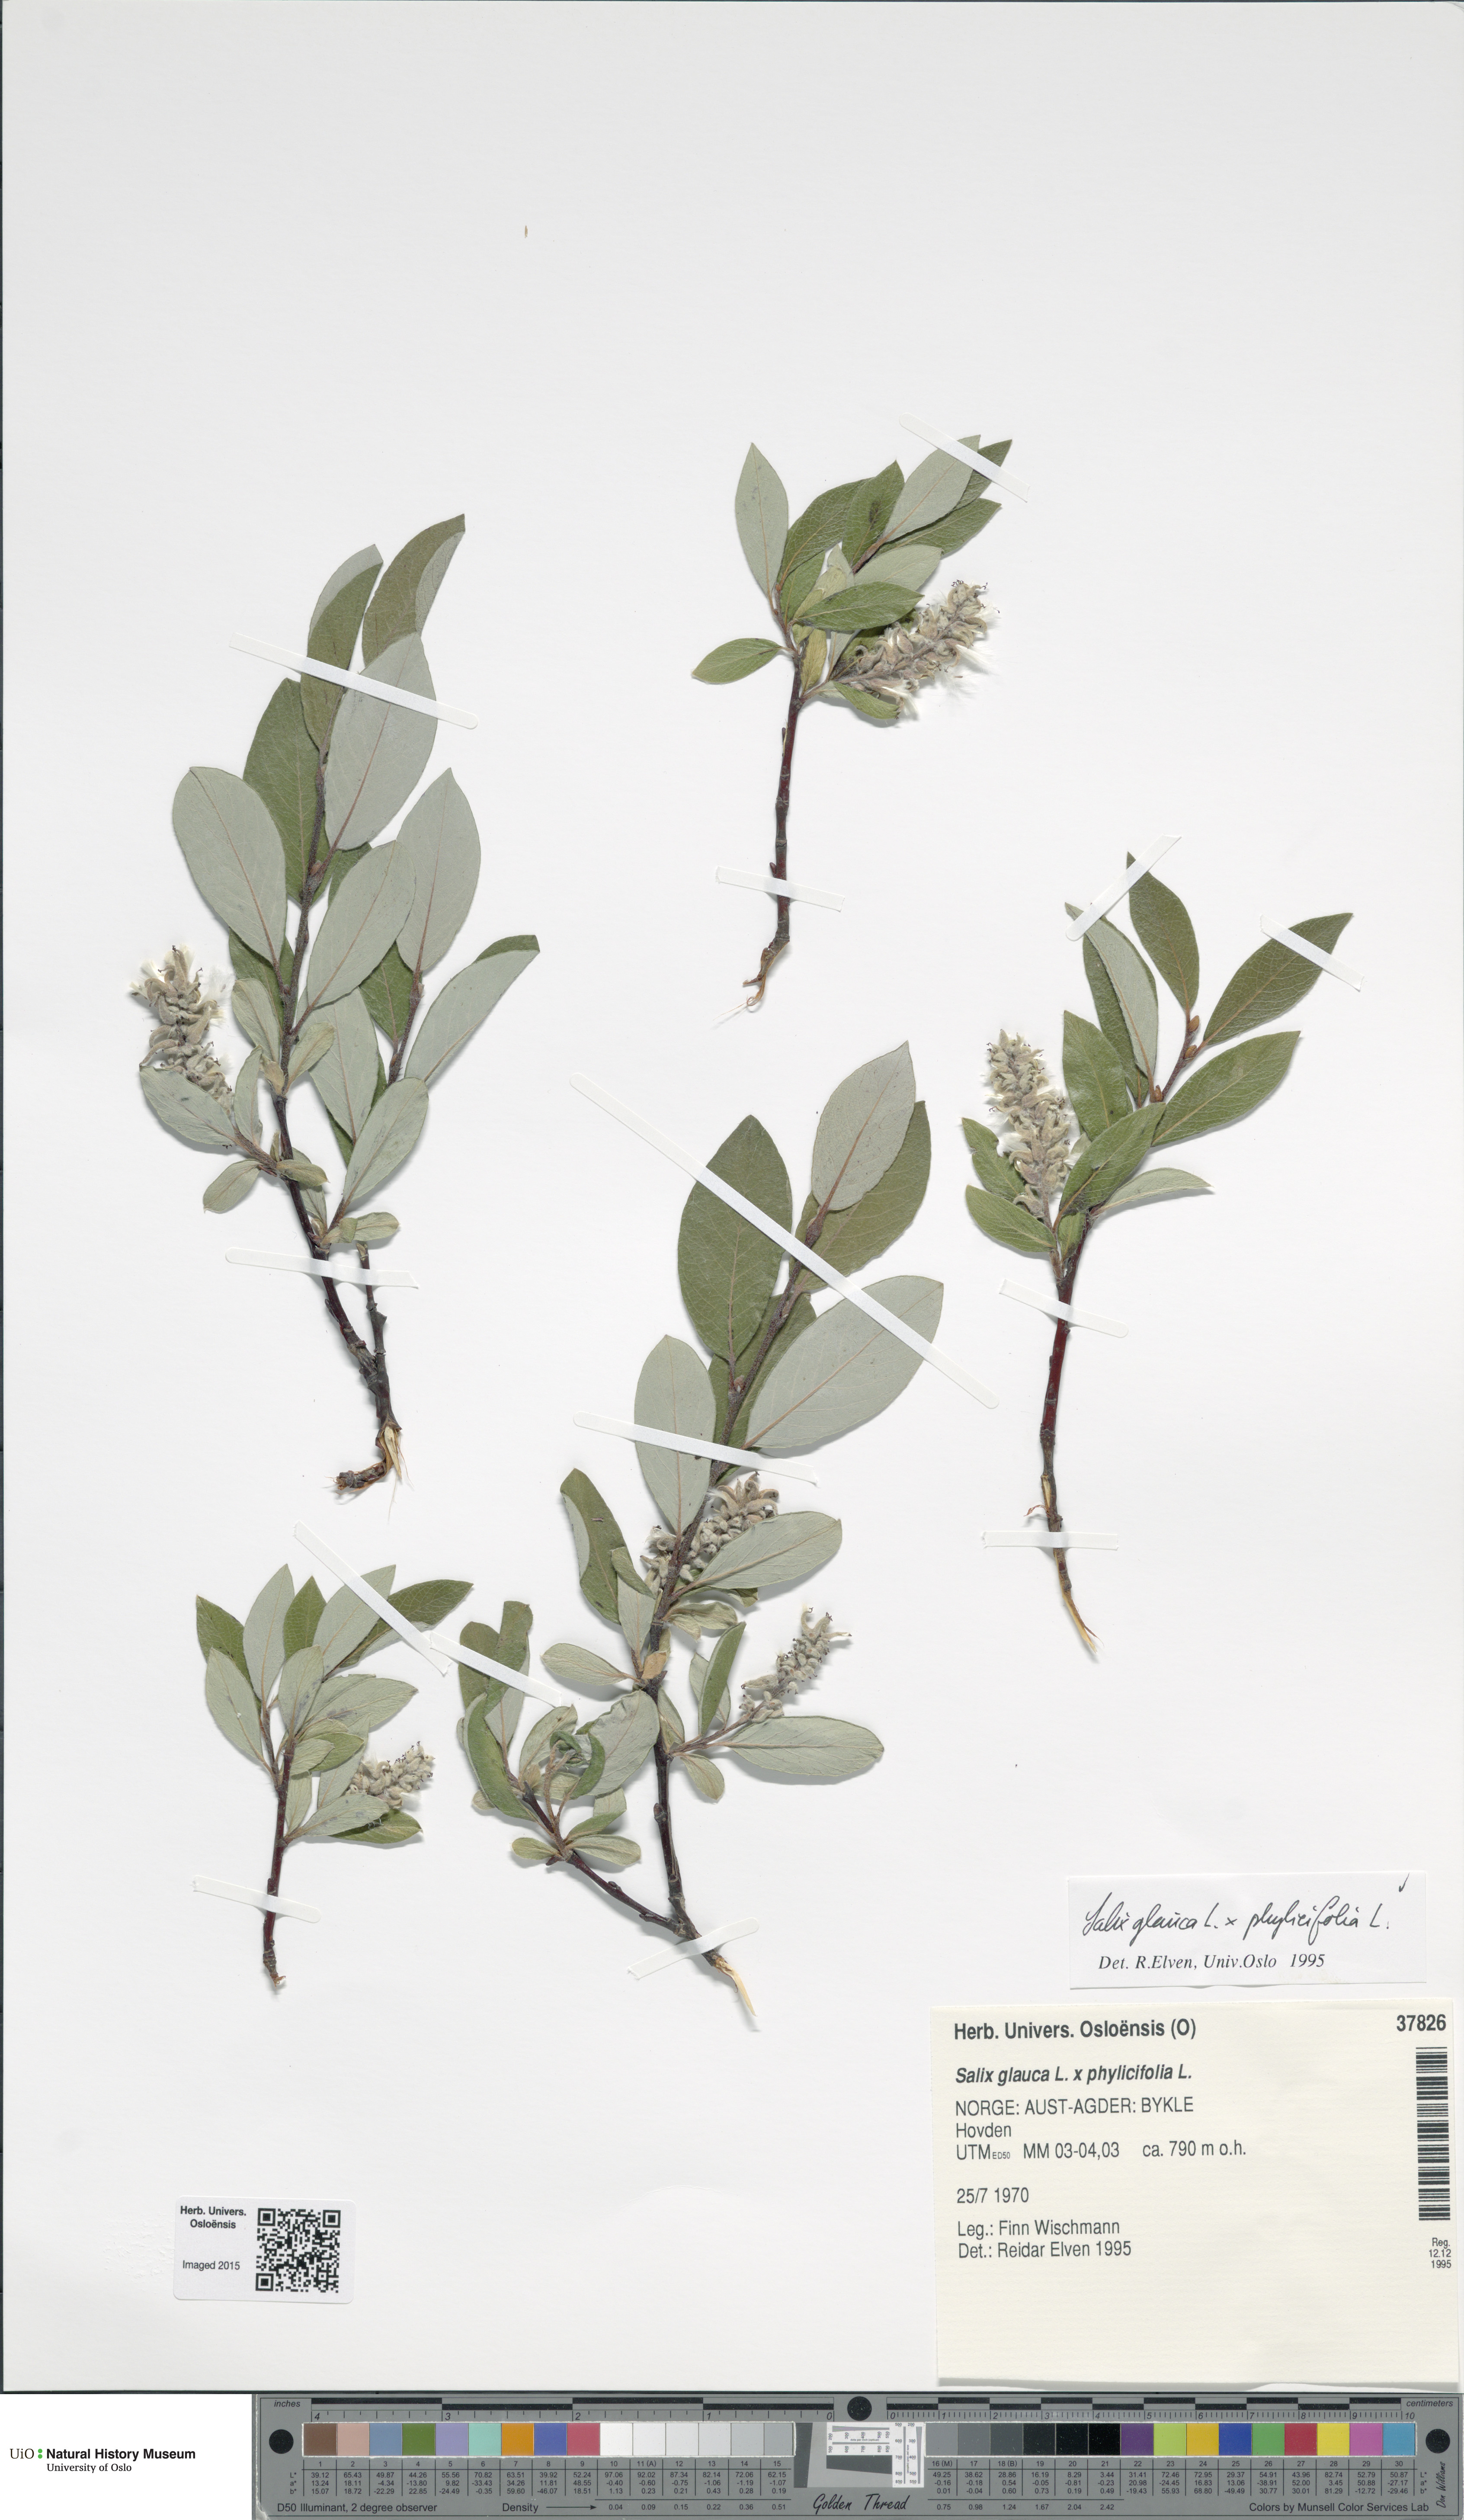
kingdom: Plantae
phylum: Tracheophyta
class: Magnoliopsida
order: Malpighiales
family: Salicaceae
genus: Salix
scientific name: Salix
